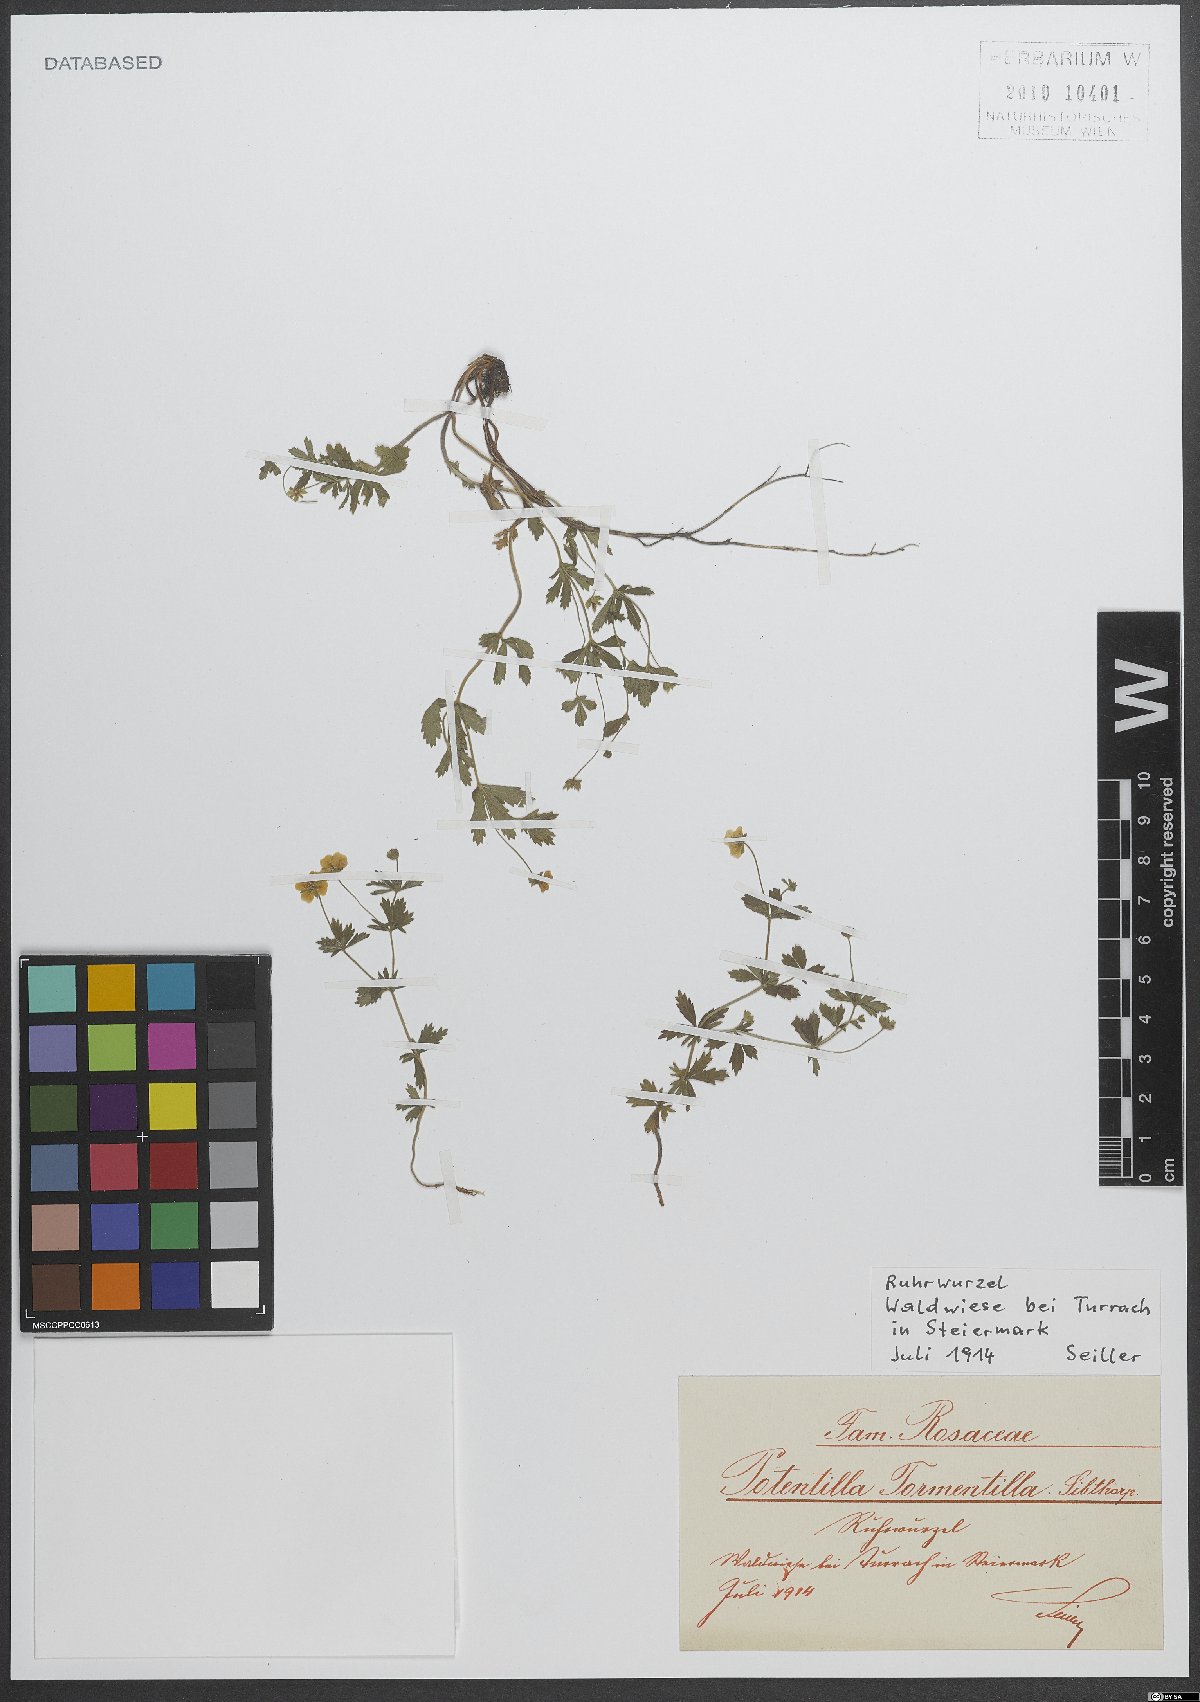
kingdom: Plantae
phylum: Tracheophyta
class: Magnoliopsida
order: Rosales
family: Rosaceae
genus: Potentilla
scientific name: Potentilla erecta
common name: Tormentil
